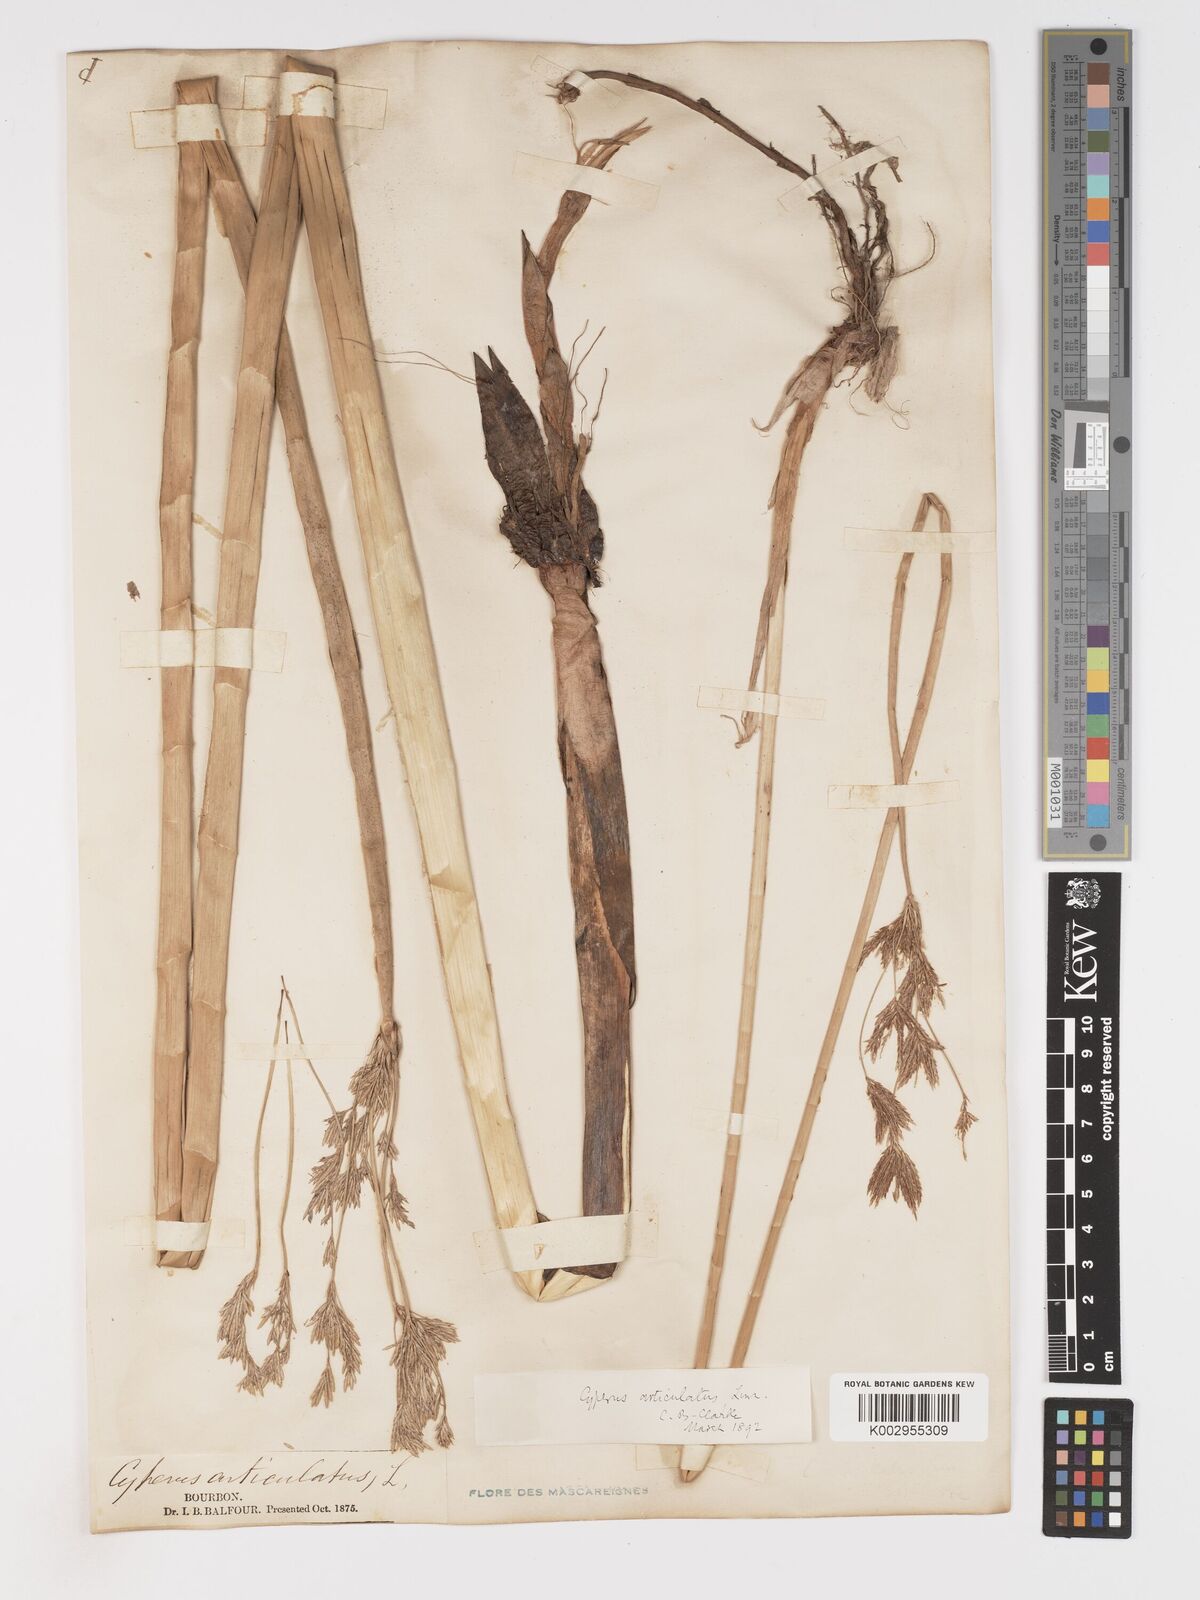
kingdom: Plantae
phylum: Tracheophyta
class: Liliopsida
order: Poales
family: Cyperaceae
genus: Cyperus
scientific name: Cyperus articulatus
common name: Jointed flatsedge
